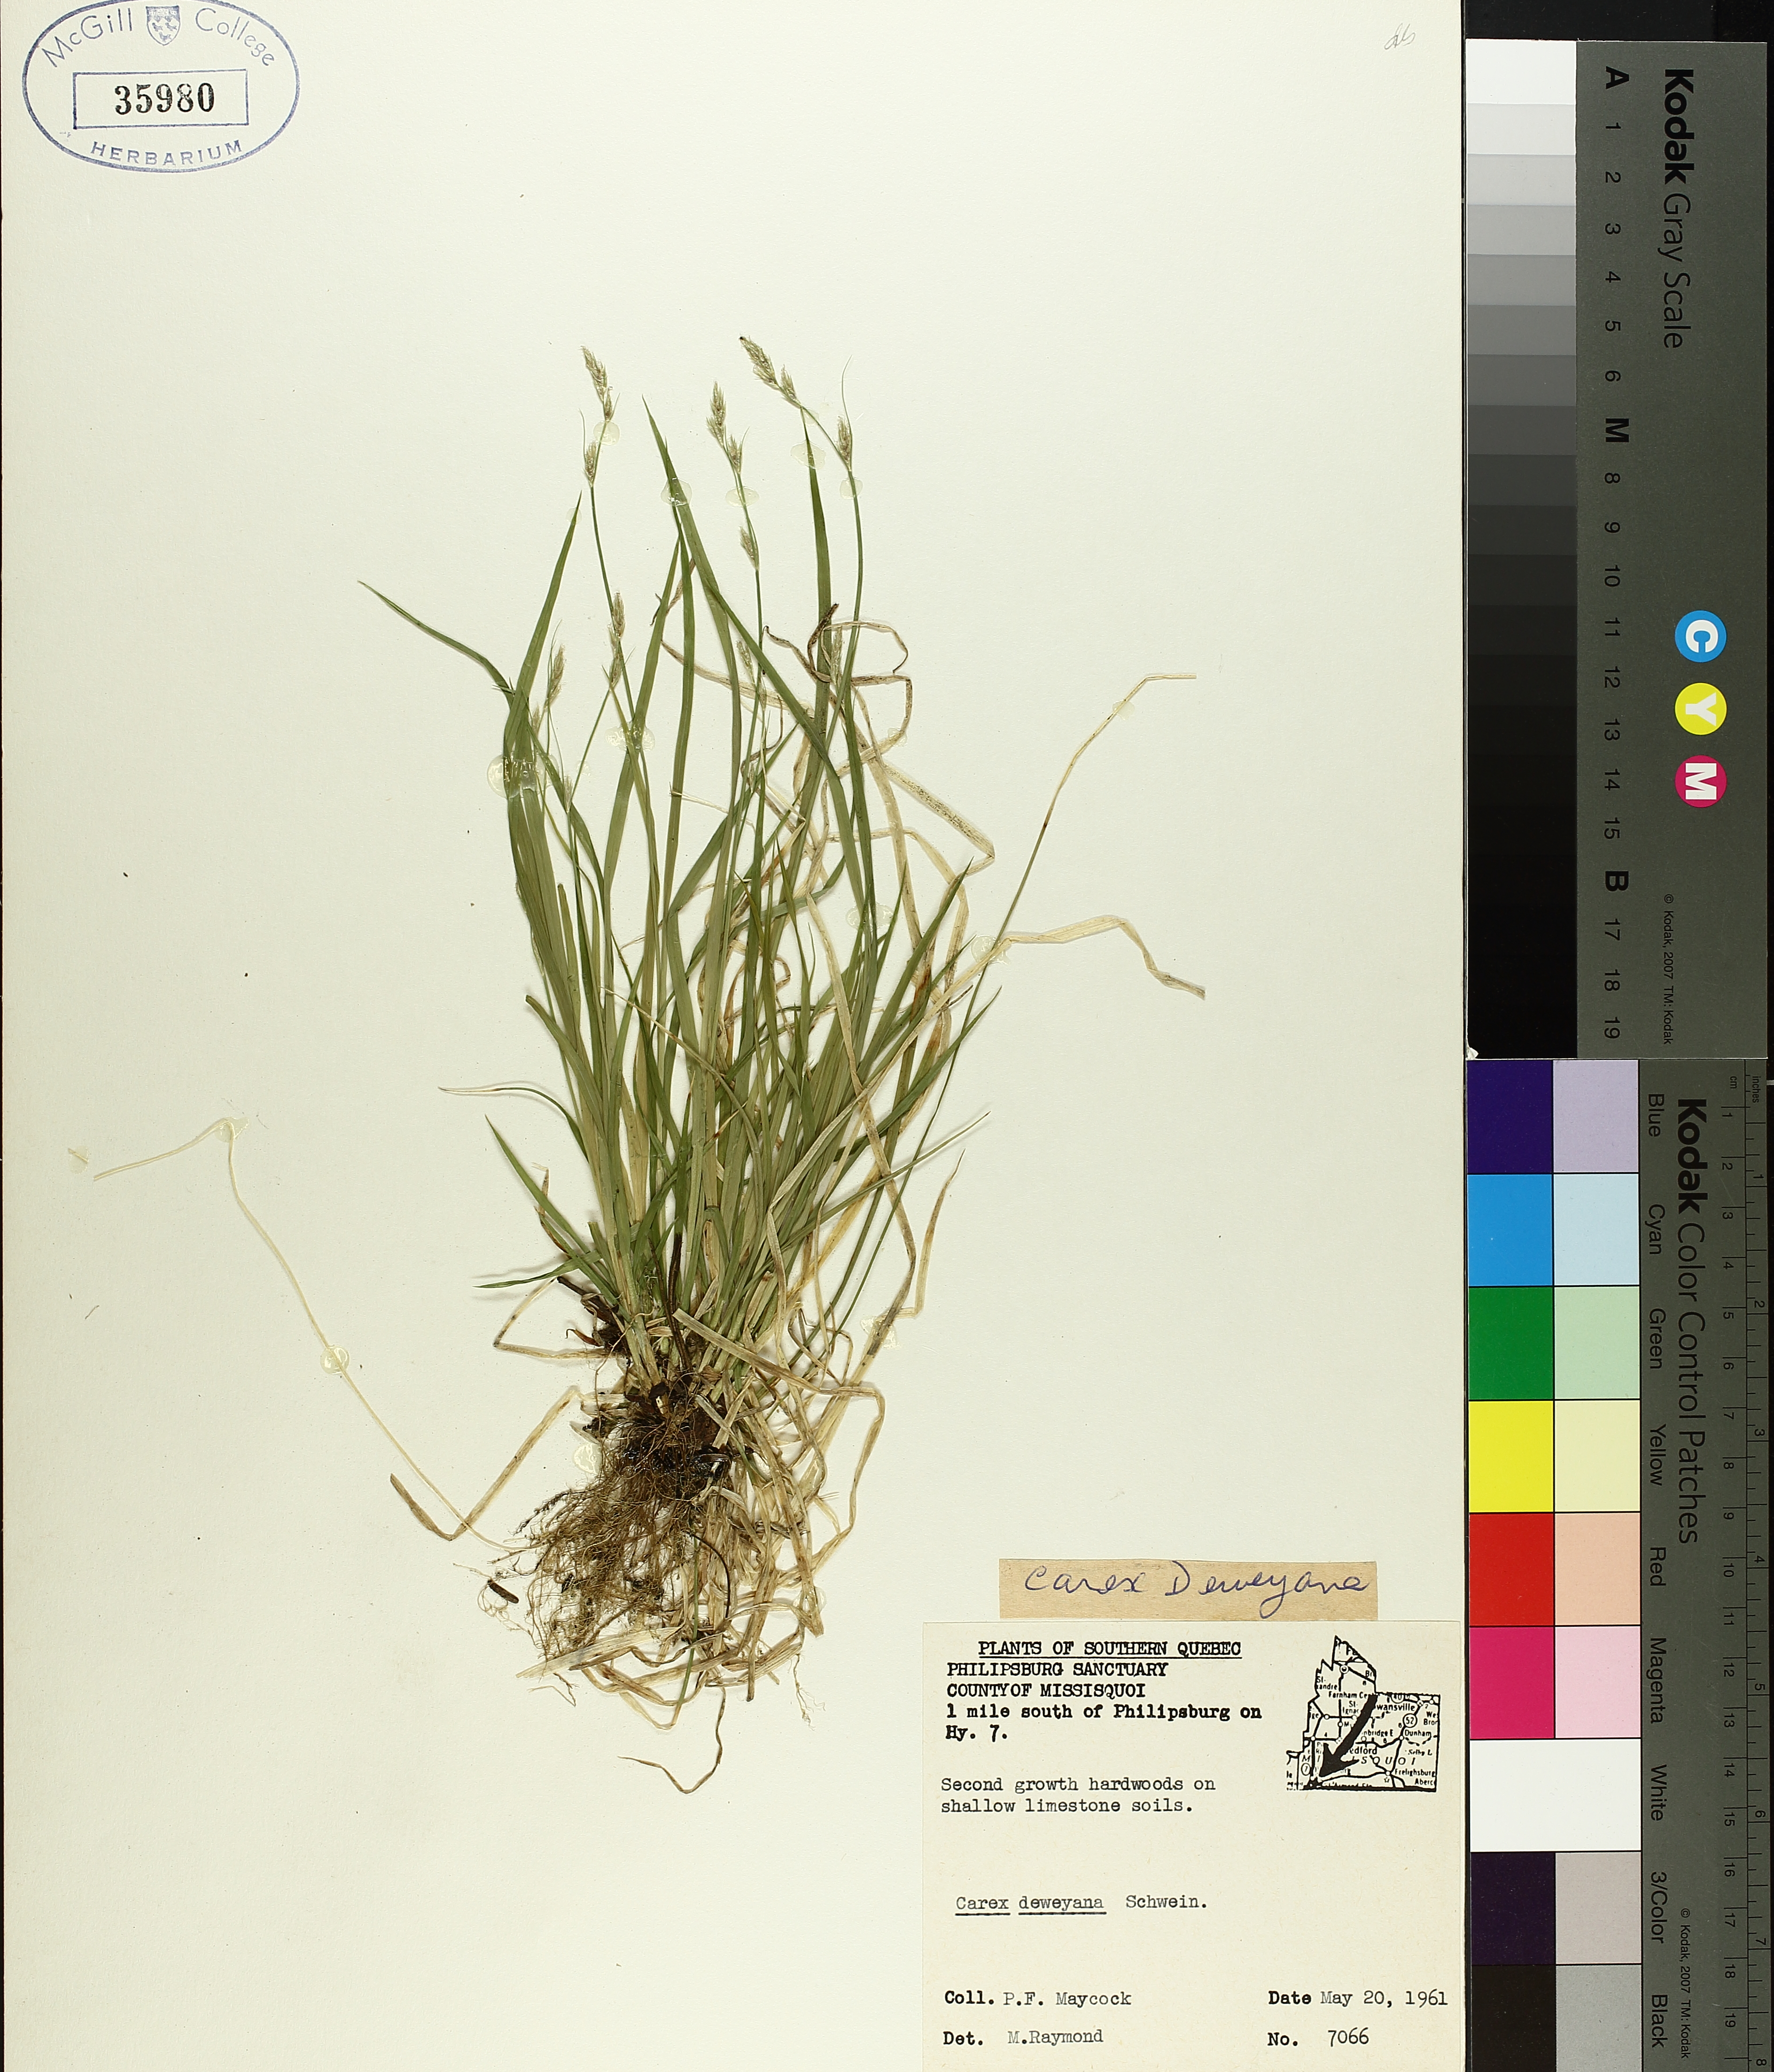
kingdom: Plantae
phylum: Tracheophyta
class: Liliopsida
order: Poales
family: Cyperaceae
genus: Carex
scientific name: Carex deweyana
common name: Dewey's sedge
